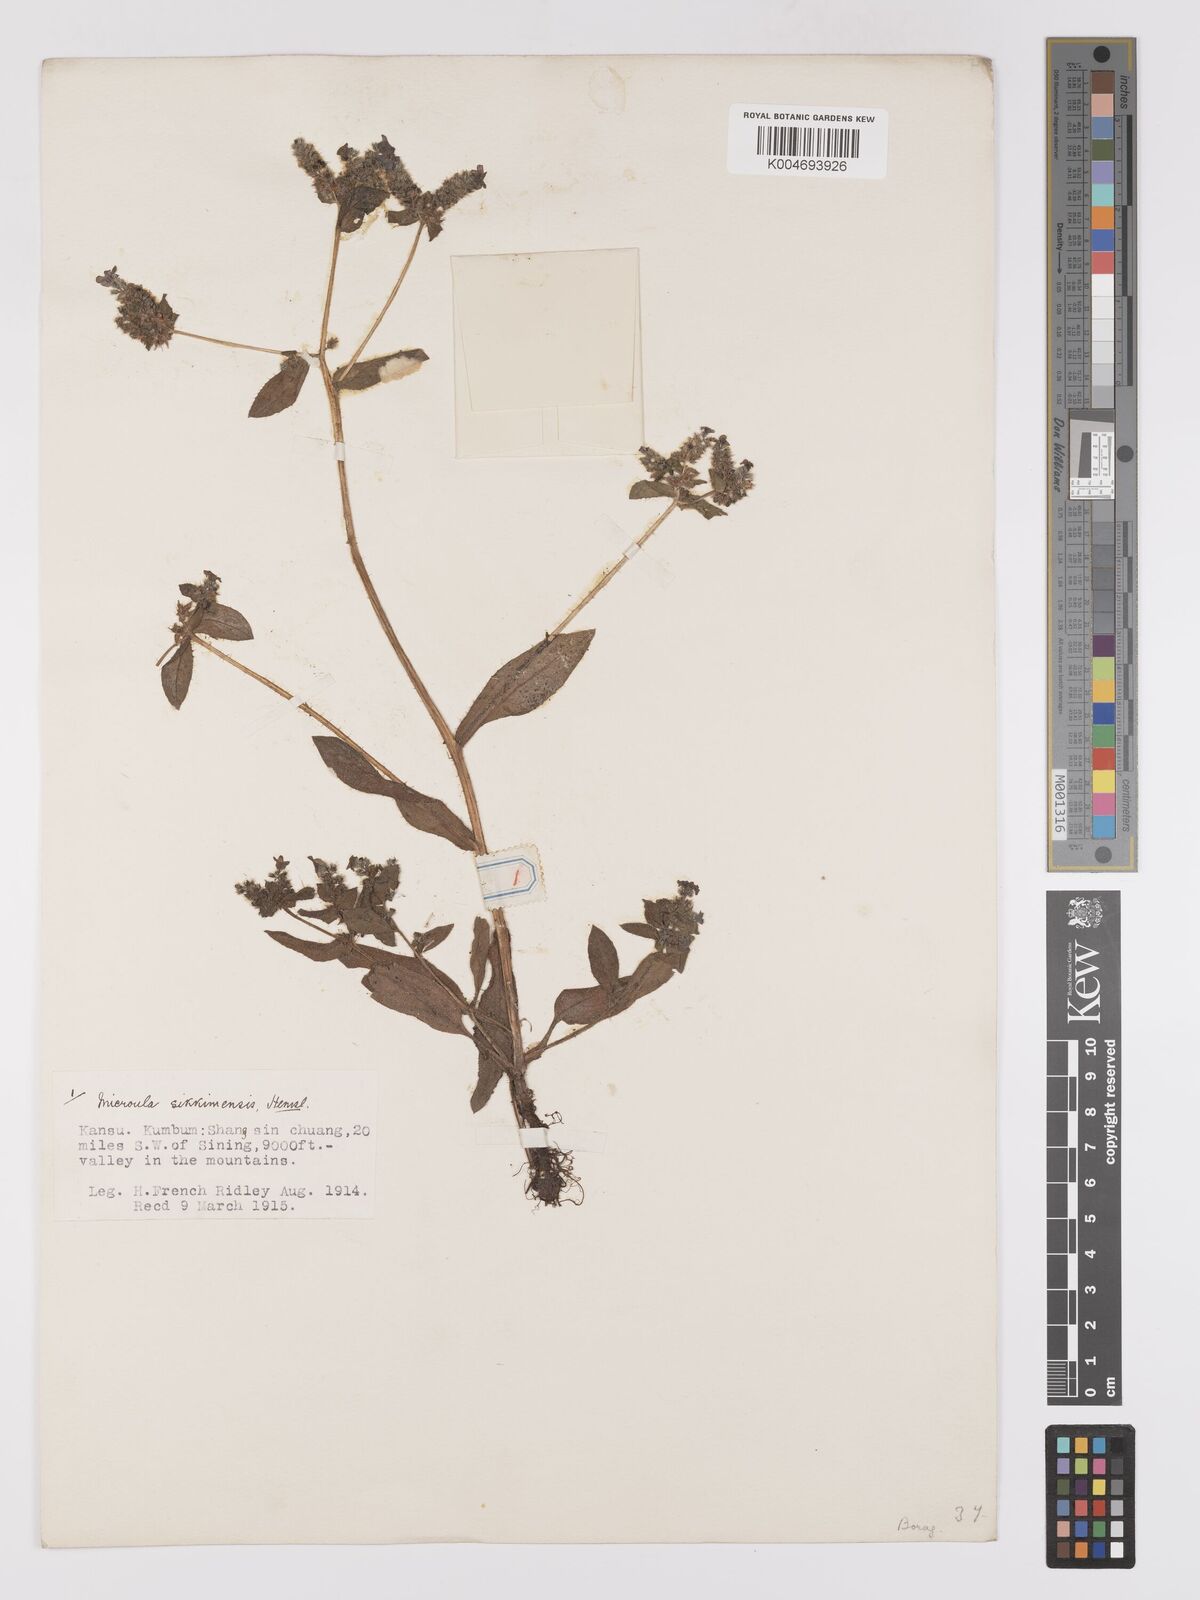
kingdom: Plantae
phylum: Tracheophyta
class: Magnoliopsida
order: Boraginales
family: Boraginaceae
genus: Microula
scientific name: Microula sikkimensis
